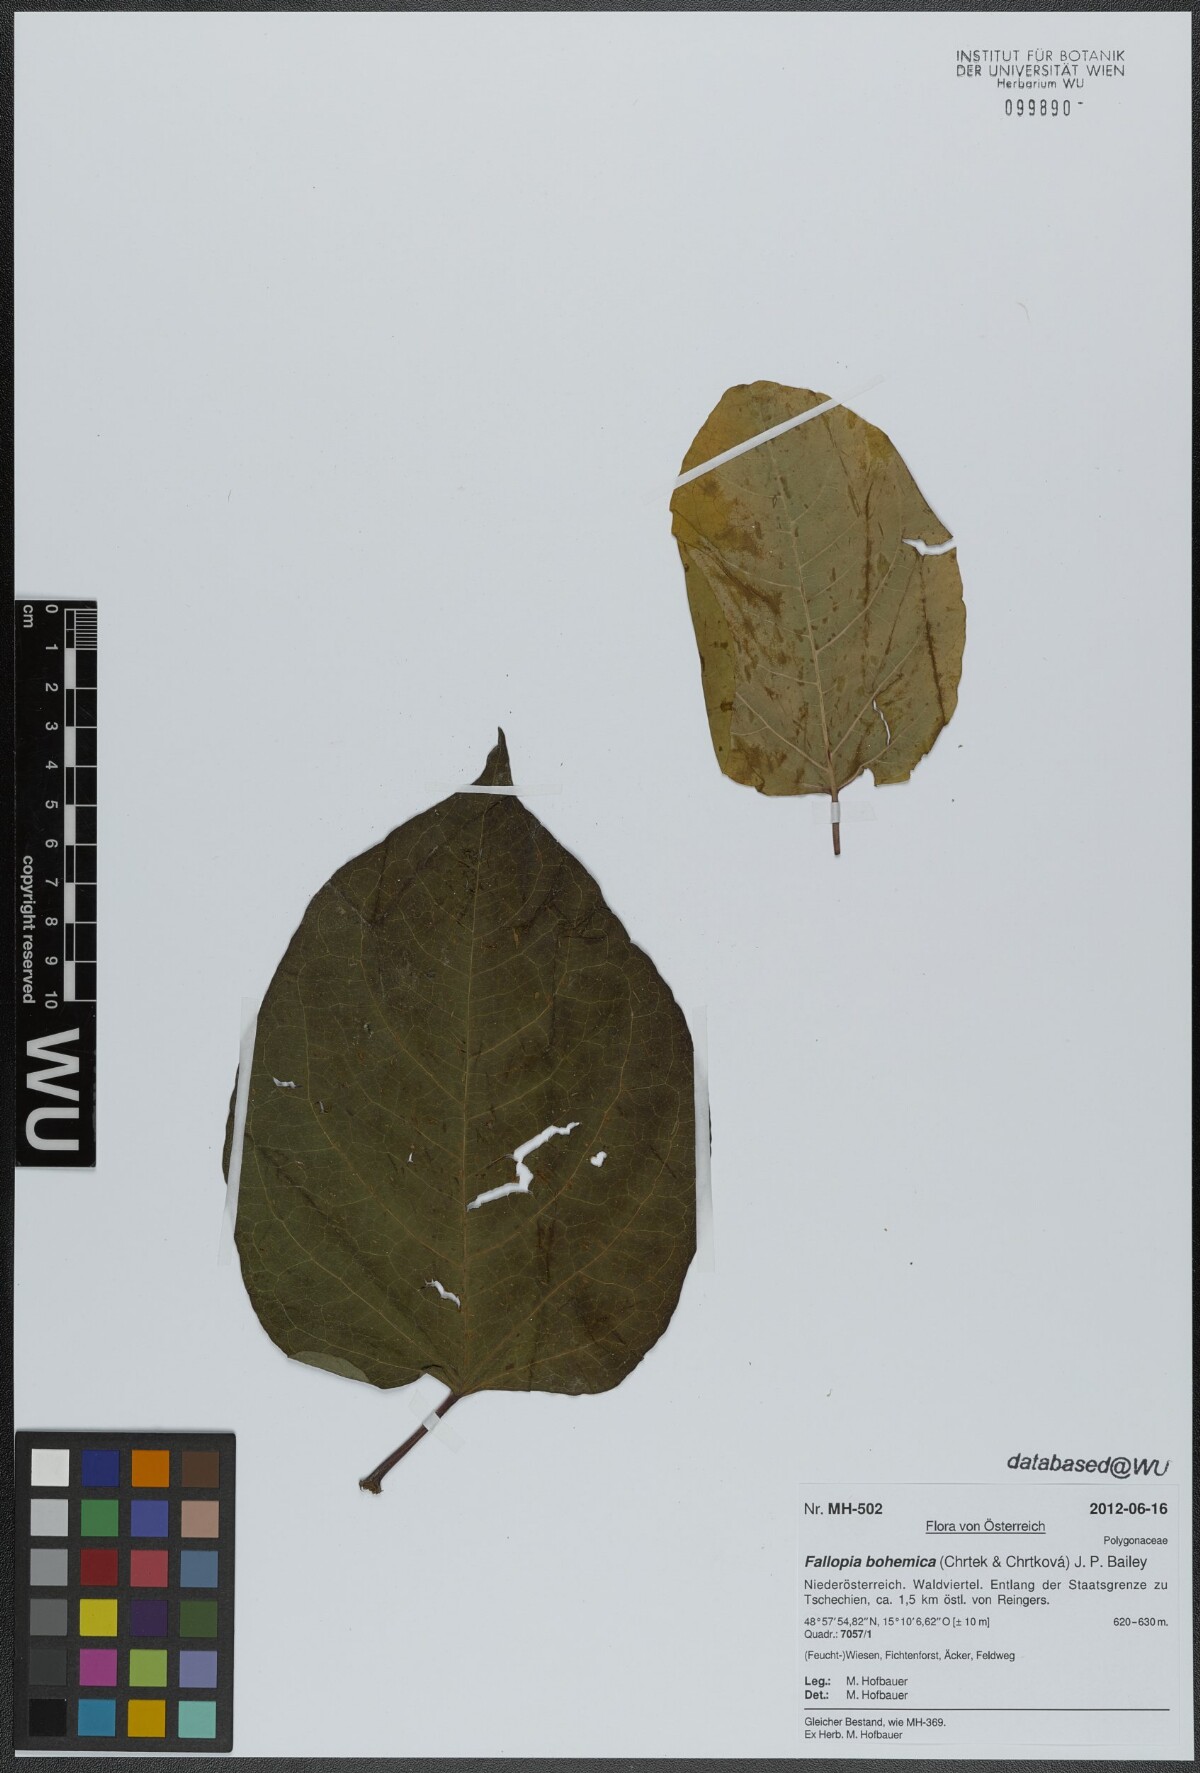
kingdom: Plantae
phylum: Tracheophyta
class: Magnoliopsida
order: Caryophyllales
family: Polygonaceae
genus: Reynoutria
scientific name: Reynoutria bohemica
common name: Bohemian knotweed
